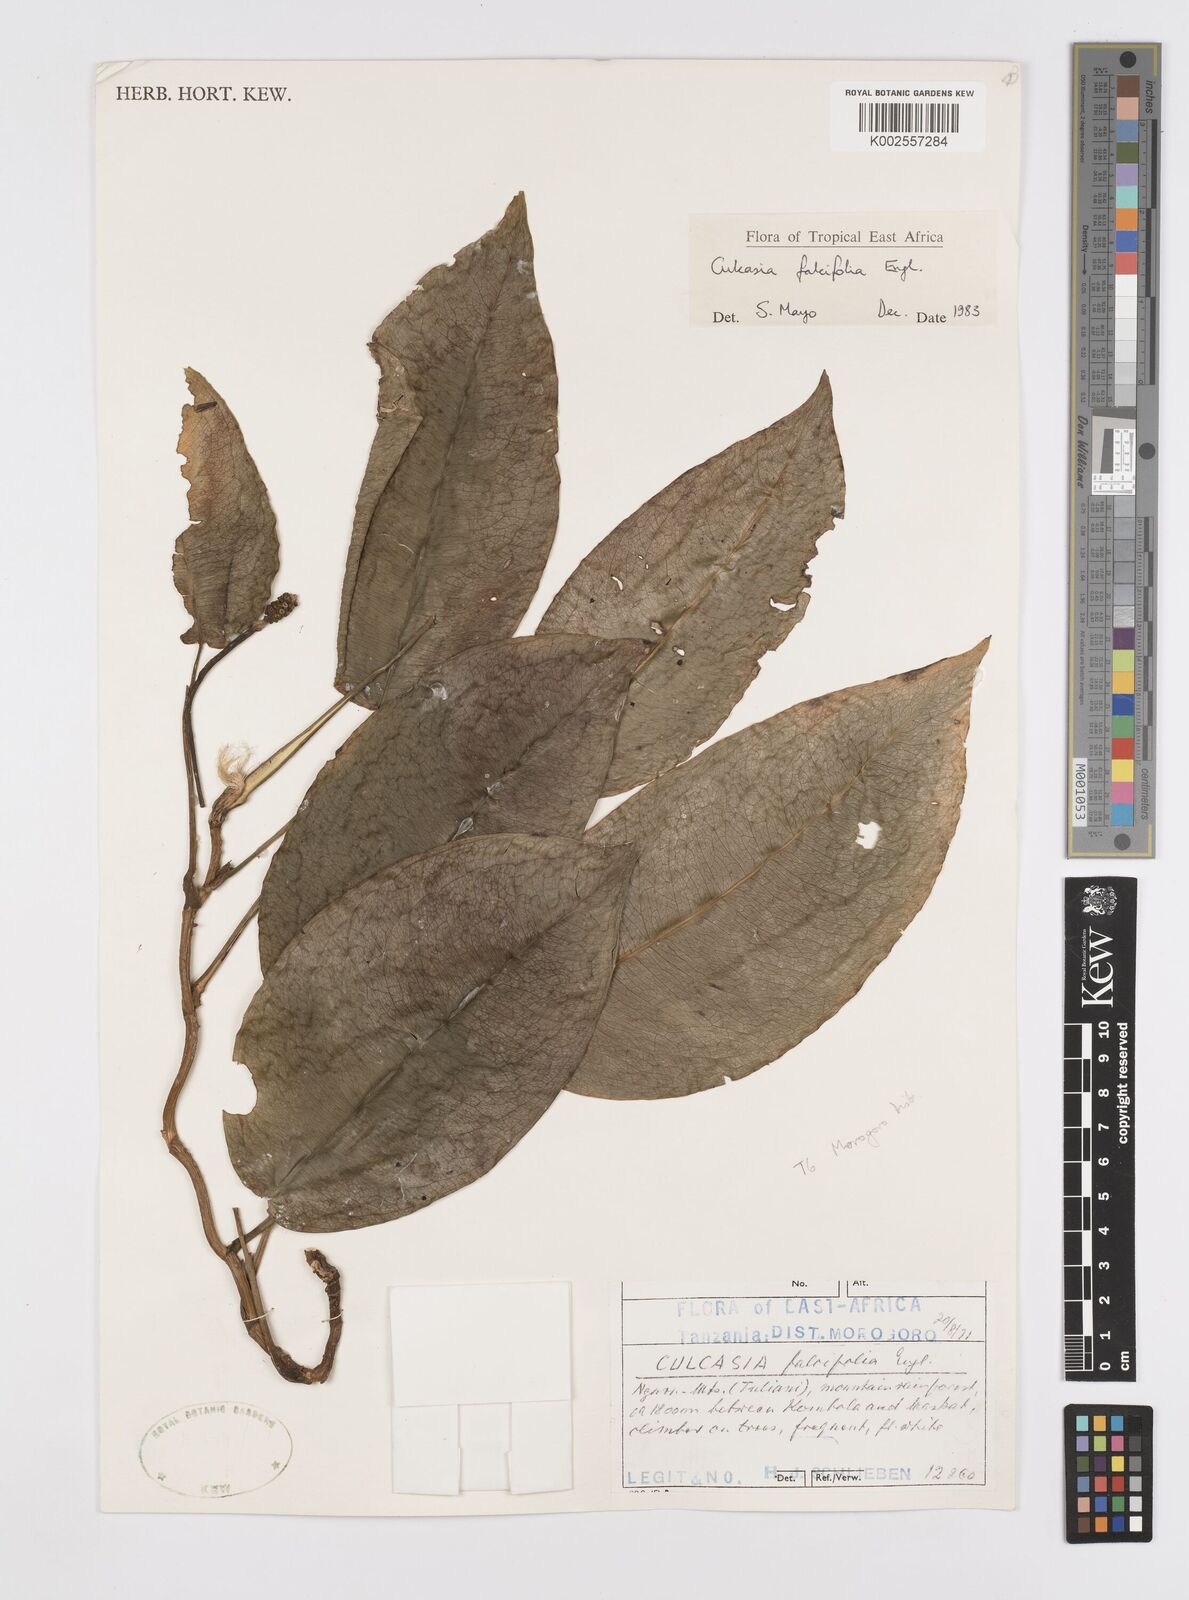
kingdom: Plantae
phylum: Tracheophyta
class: Liliopsida
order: Alismatales
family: Araceae
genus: Culcasia
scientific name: Culcasia falcifolia
